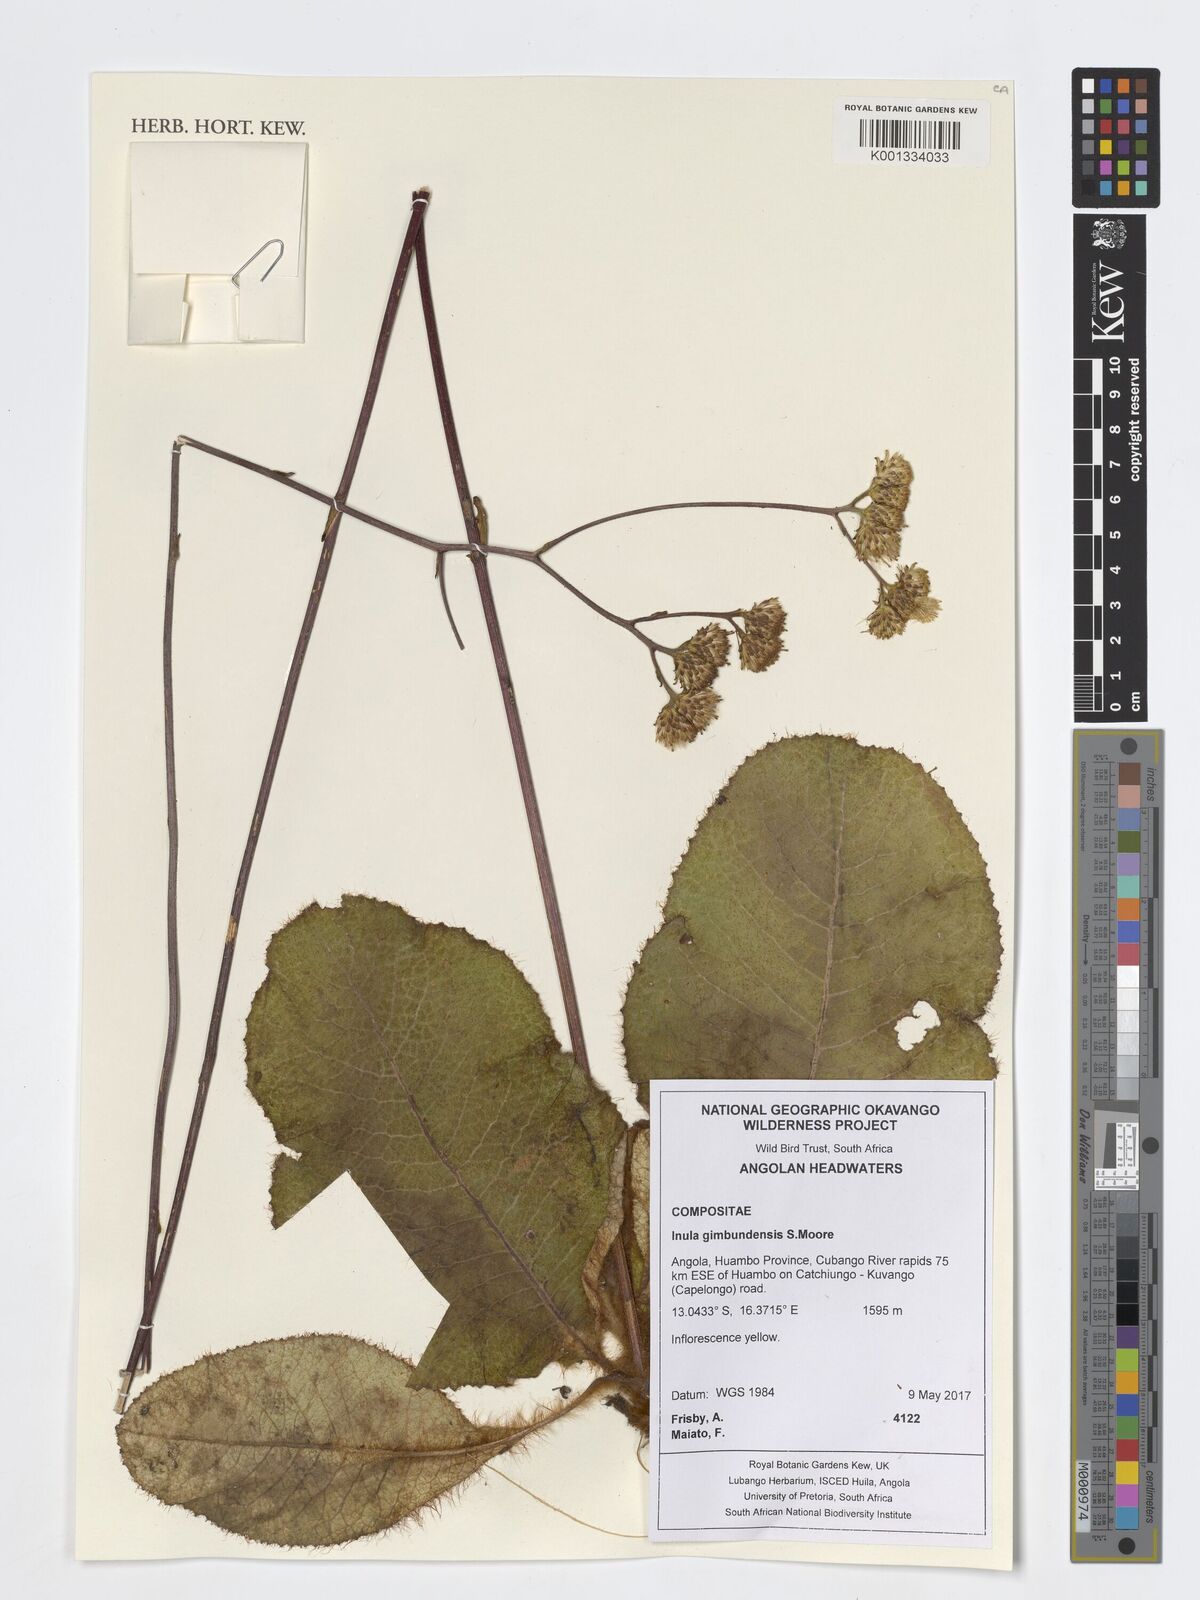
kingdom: Plantae
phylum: Tracheophyta
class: Magnoliopsida
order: Asterales
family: Asteraceae
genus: Inula
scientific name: Inula gimbundensis
